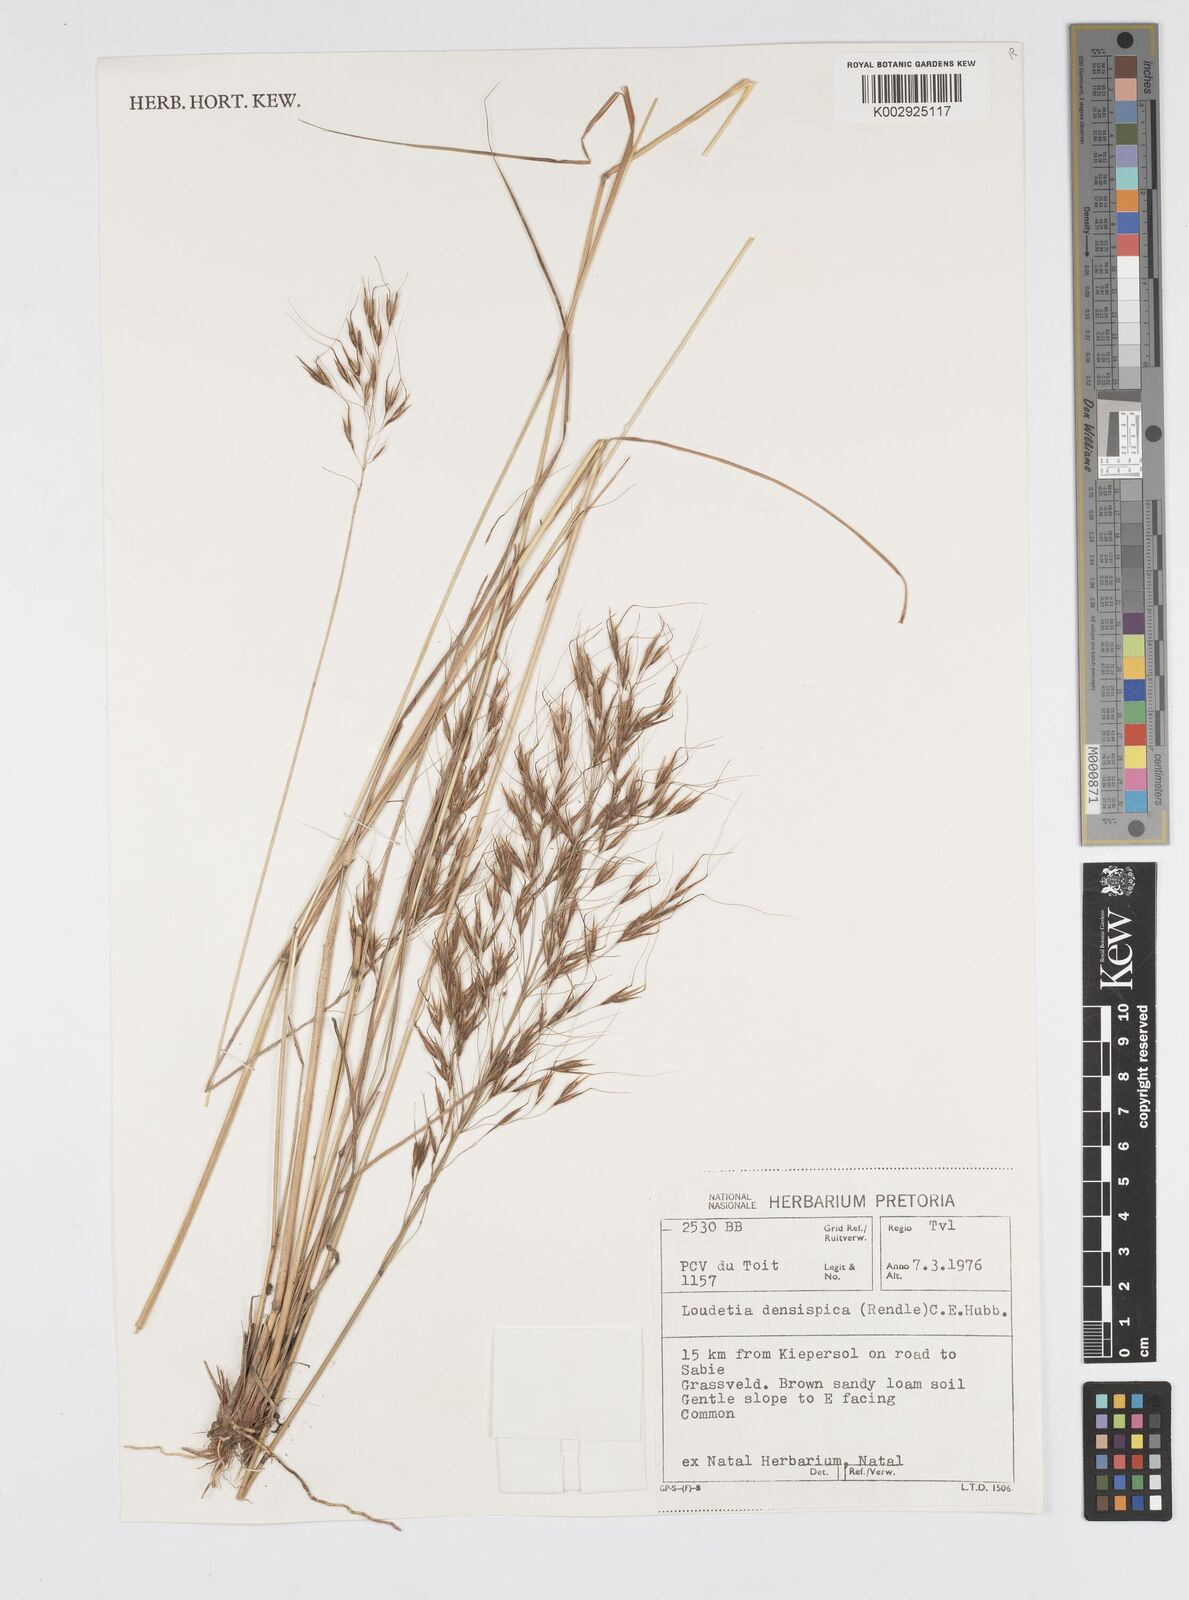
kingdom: Plantae
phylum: Tracheophyta
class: Liliopsida
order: Poales
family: Poaceae
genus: Loudetia
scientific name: Loudetia
